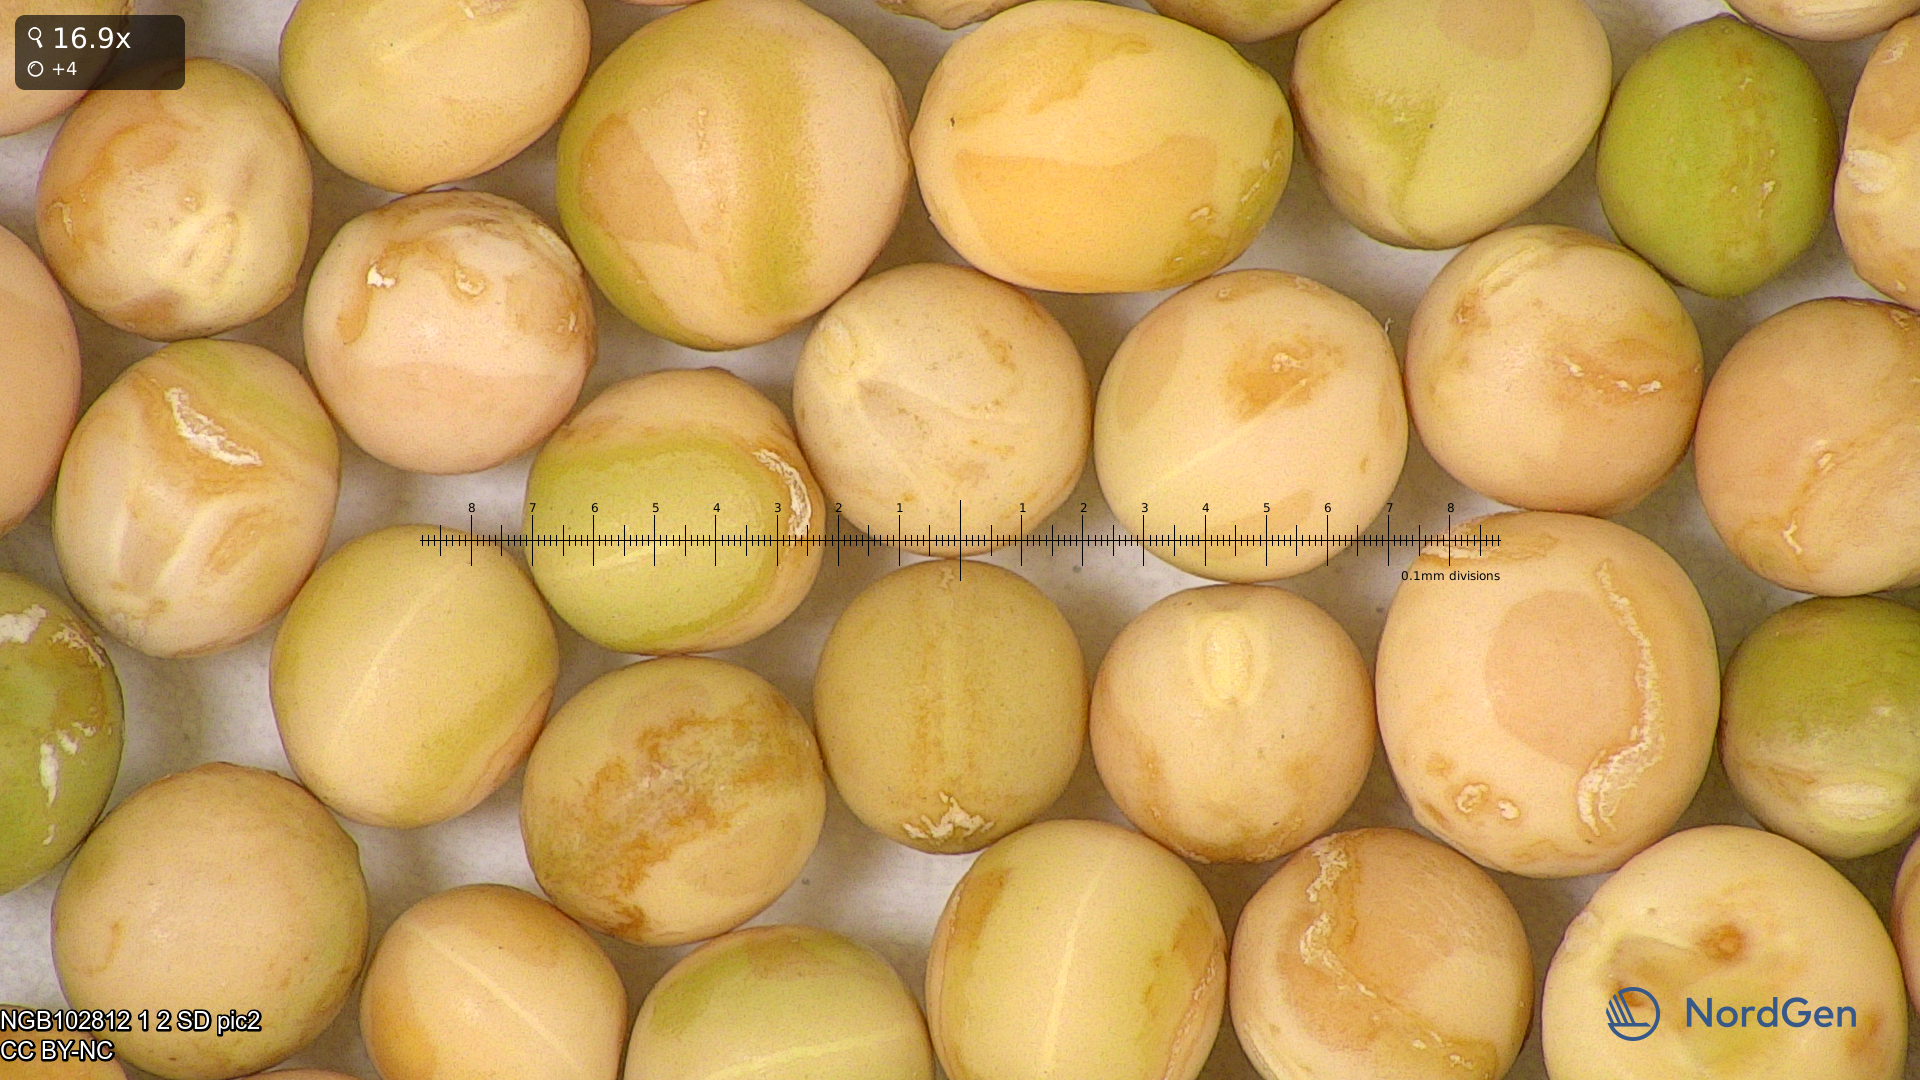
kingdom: Plantae
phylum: Tracheophyta
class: Magnoliopsida
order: Fabales
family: Fabaceae
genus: Lathyrus
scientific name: Lathyrus oleraceus
